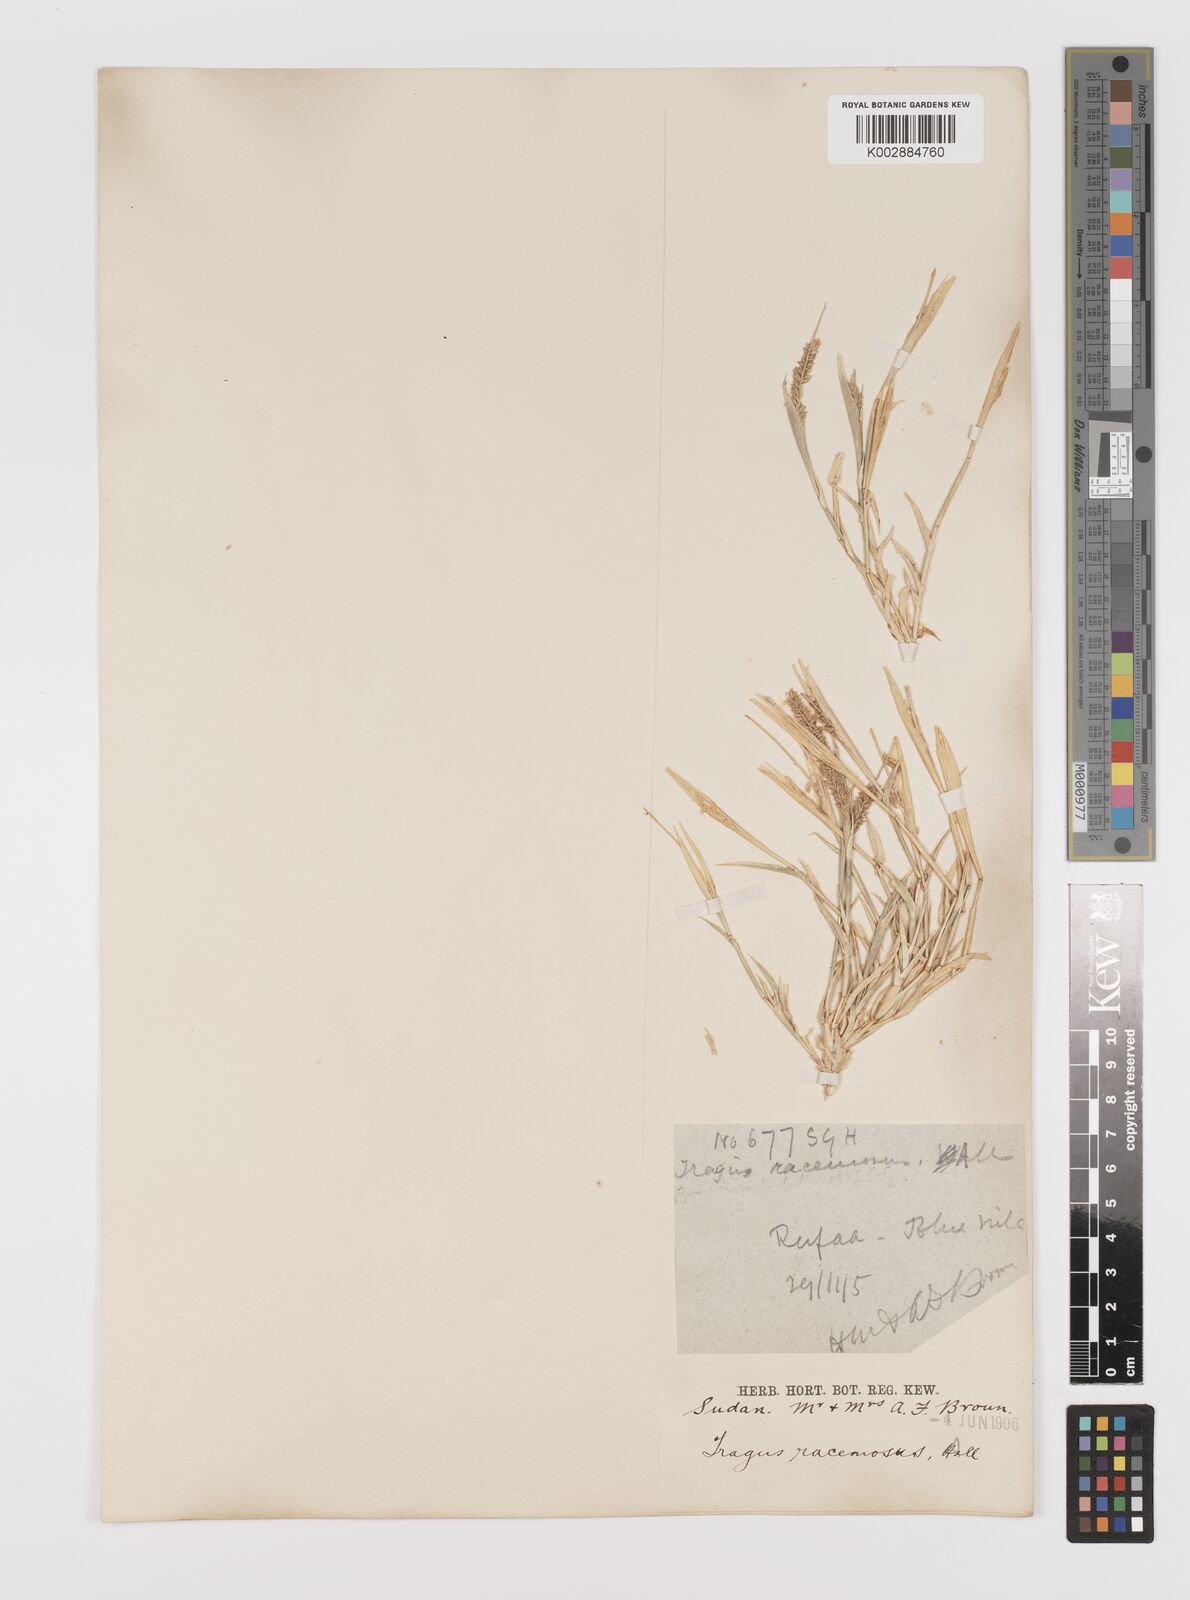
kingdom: Plantae
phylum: Tracheophyta
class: Liliopsida
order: Poales
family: Poaceae
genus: Tragus
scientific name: Tragus berteronianus
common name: African bur-grass
